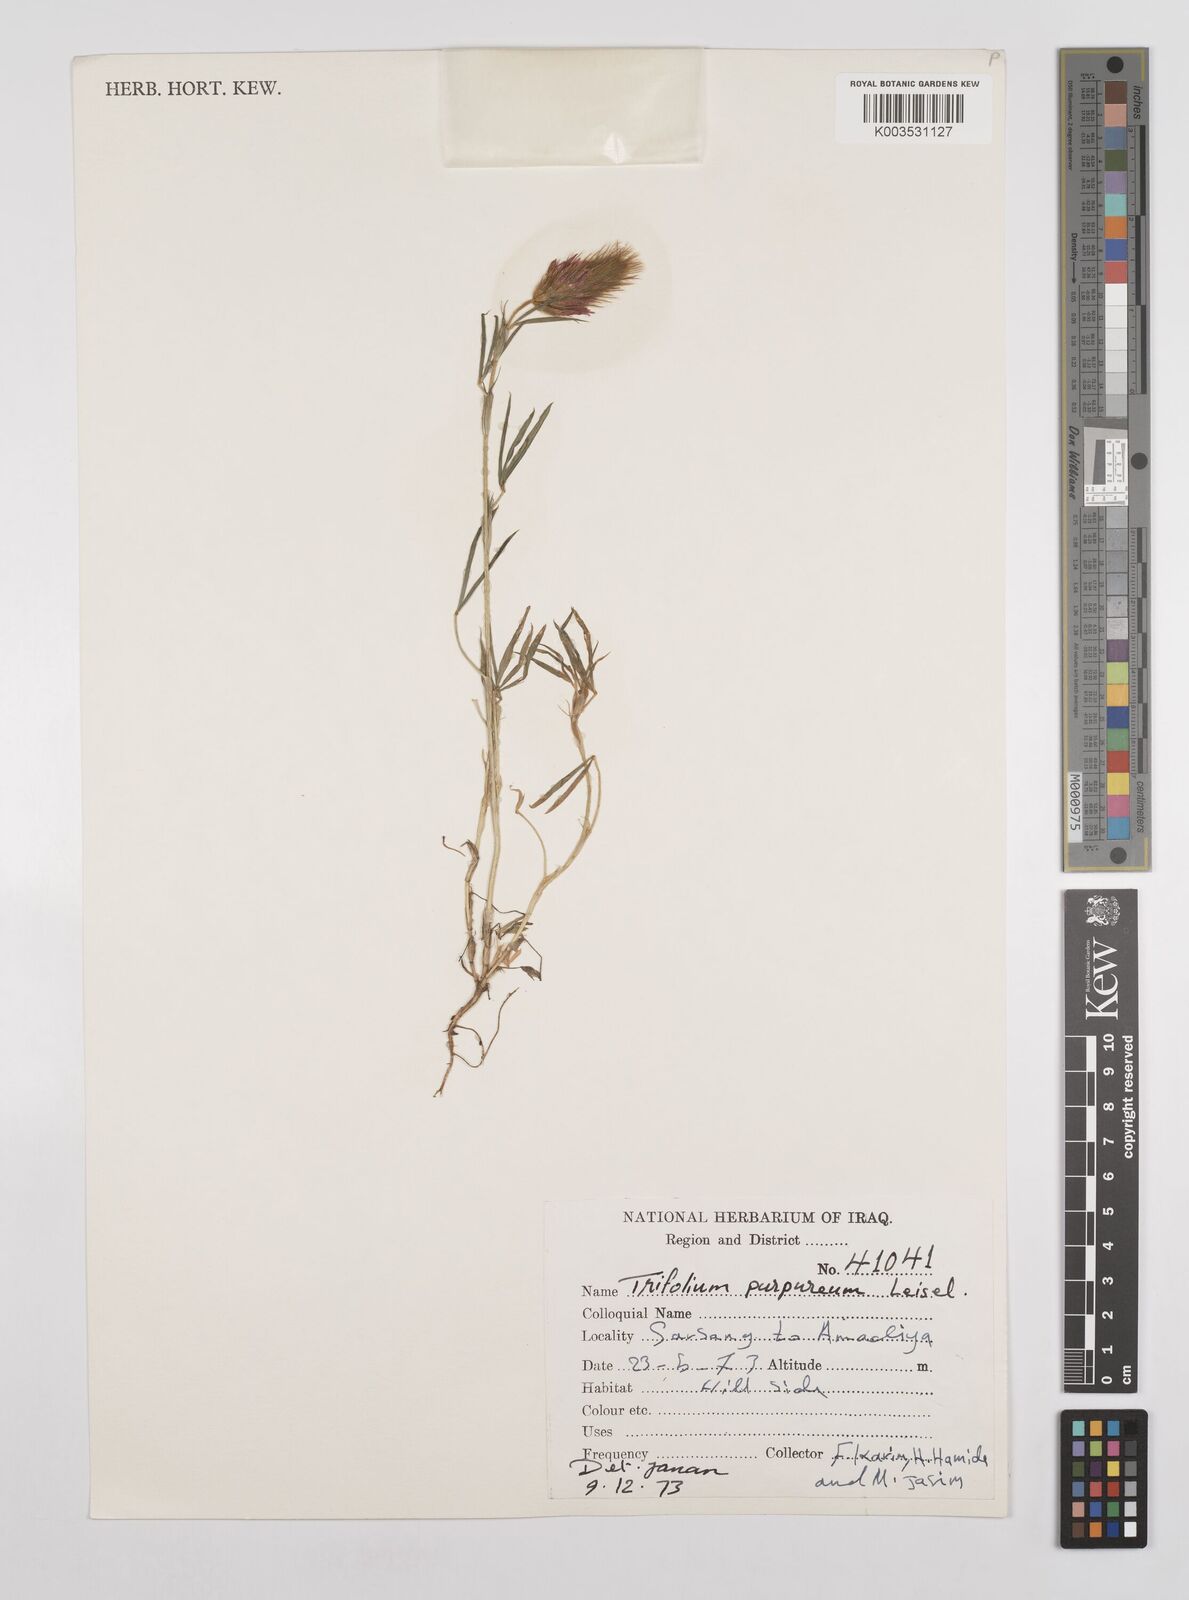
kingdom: Plantae
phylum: Tracheophyta
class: Magnoliopsida
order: Fabales
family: Fabaceae
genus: Trifolium
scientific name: Trifolium purpureum
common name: Purple clover
